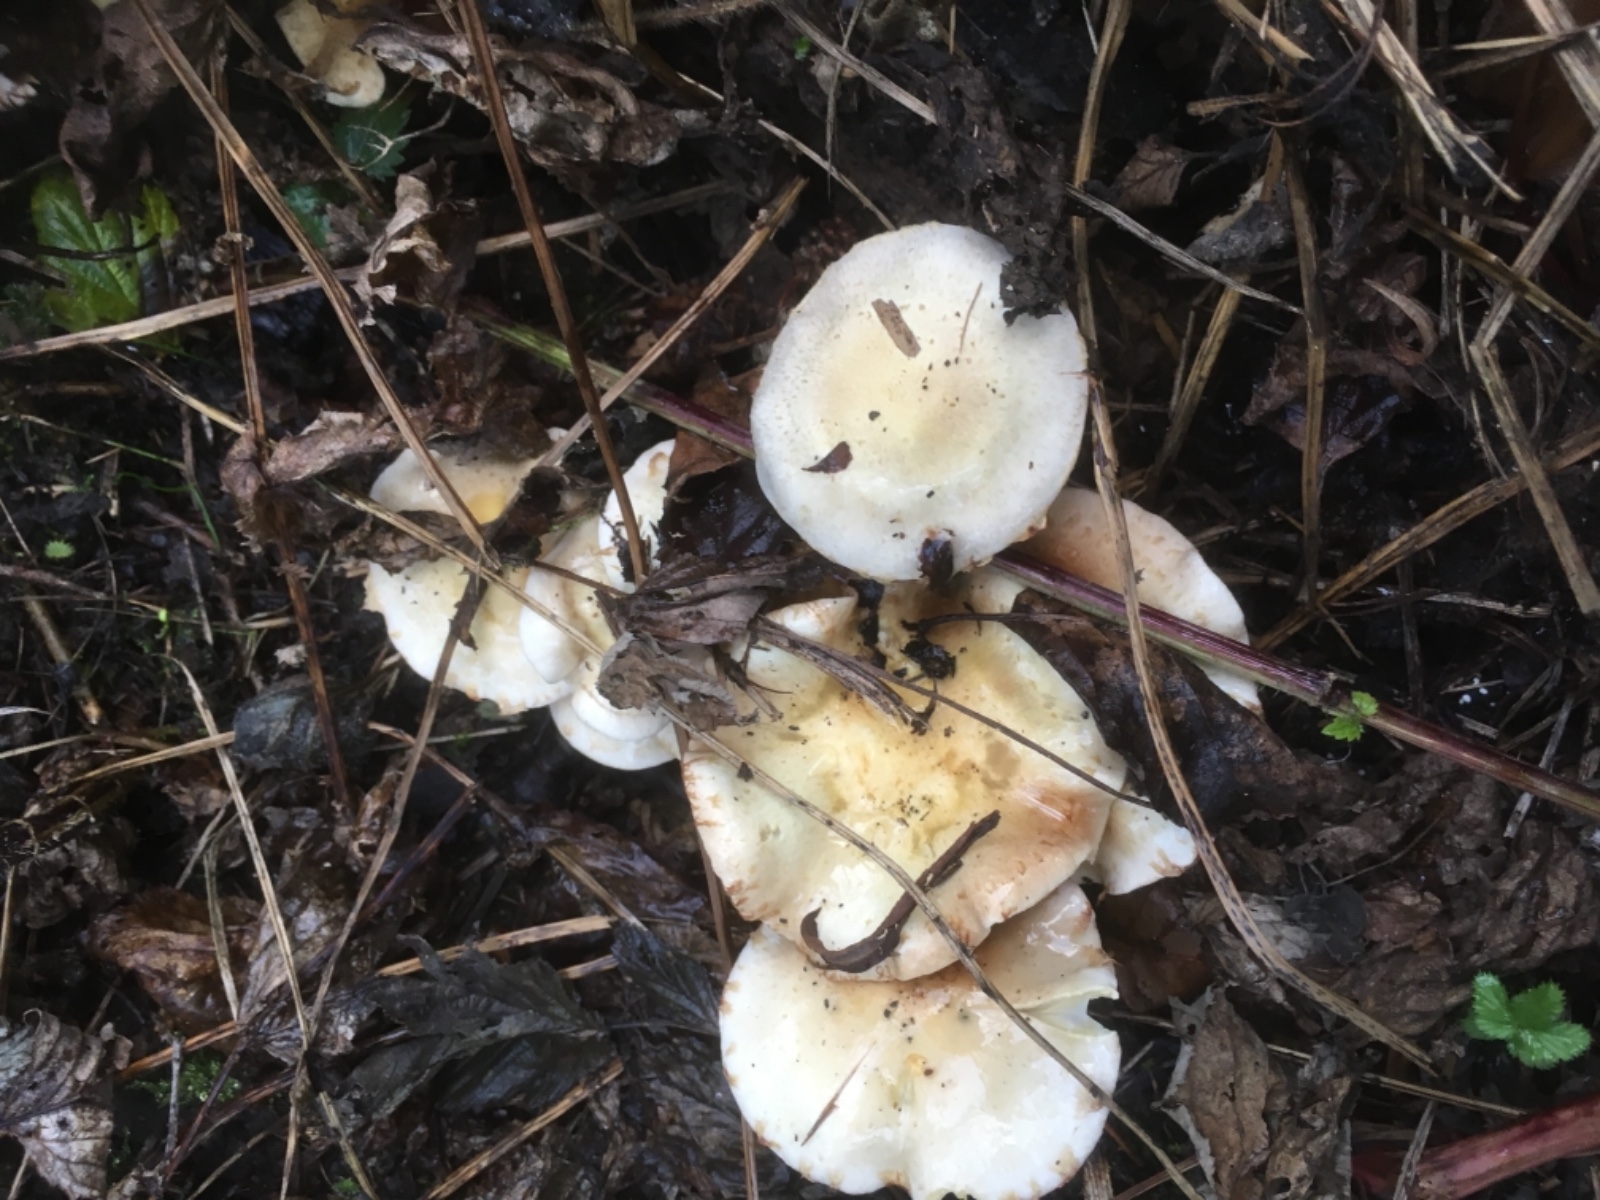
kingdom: Fungi
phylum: Basidiomycota
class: Agaricomycetes
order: Agaricales
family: Strophariaceae
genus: Pholiota
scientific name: Pholiota gummosa
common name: grøngul skælhat
